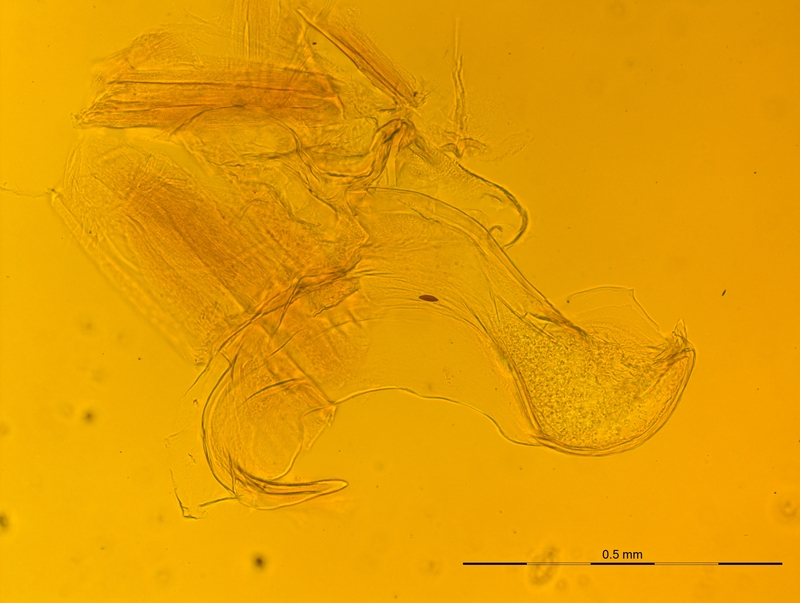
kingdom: Animalia
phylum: Arthropoda
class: Diplopoda
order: Chordeumatida
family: Craspedosomatidae
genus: Rhymogona
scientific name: Rhymogona montivaga
